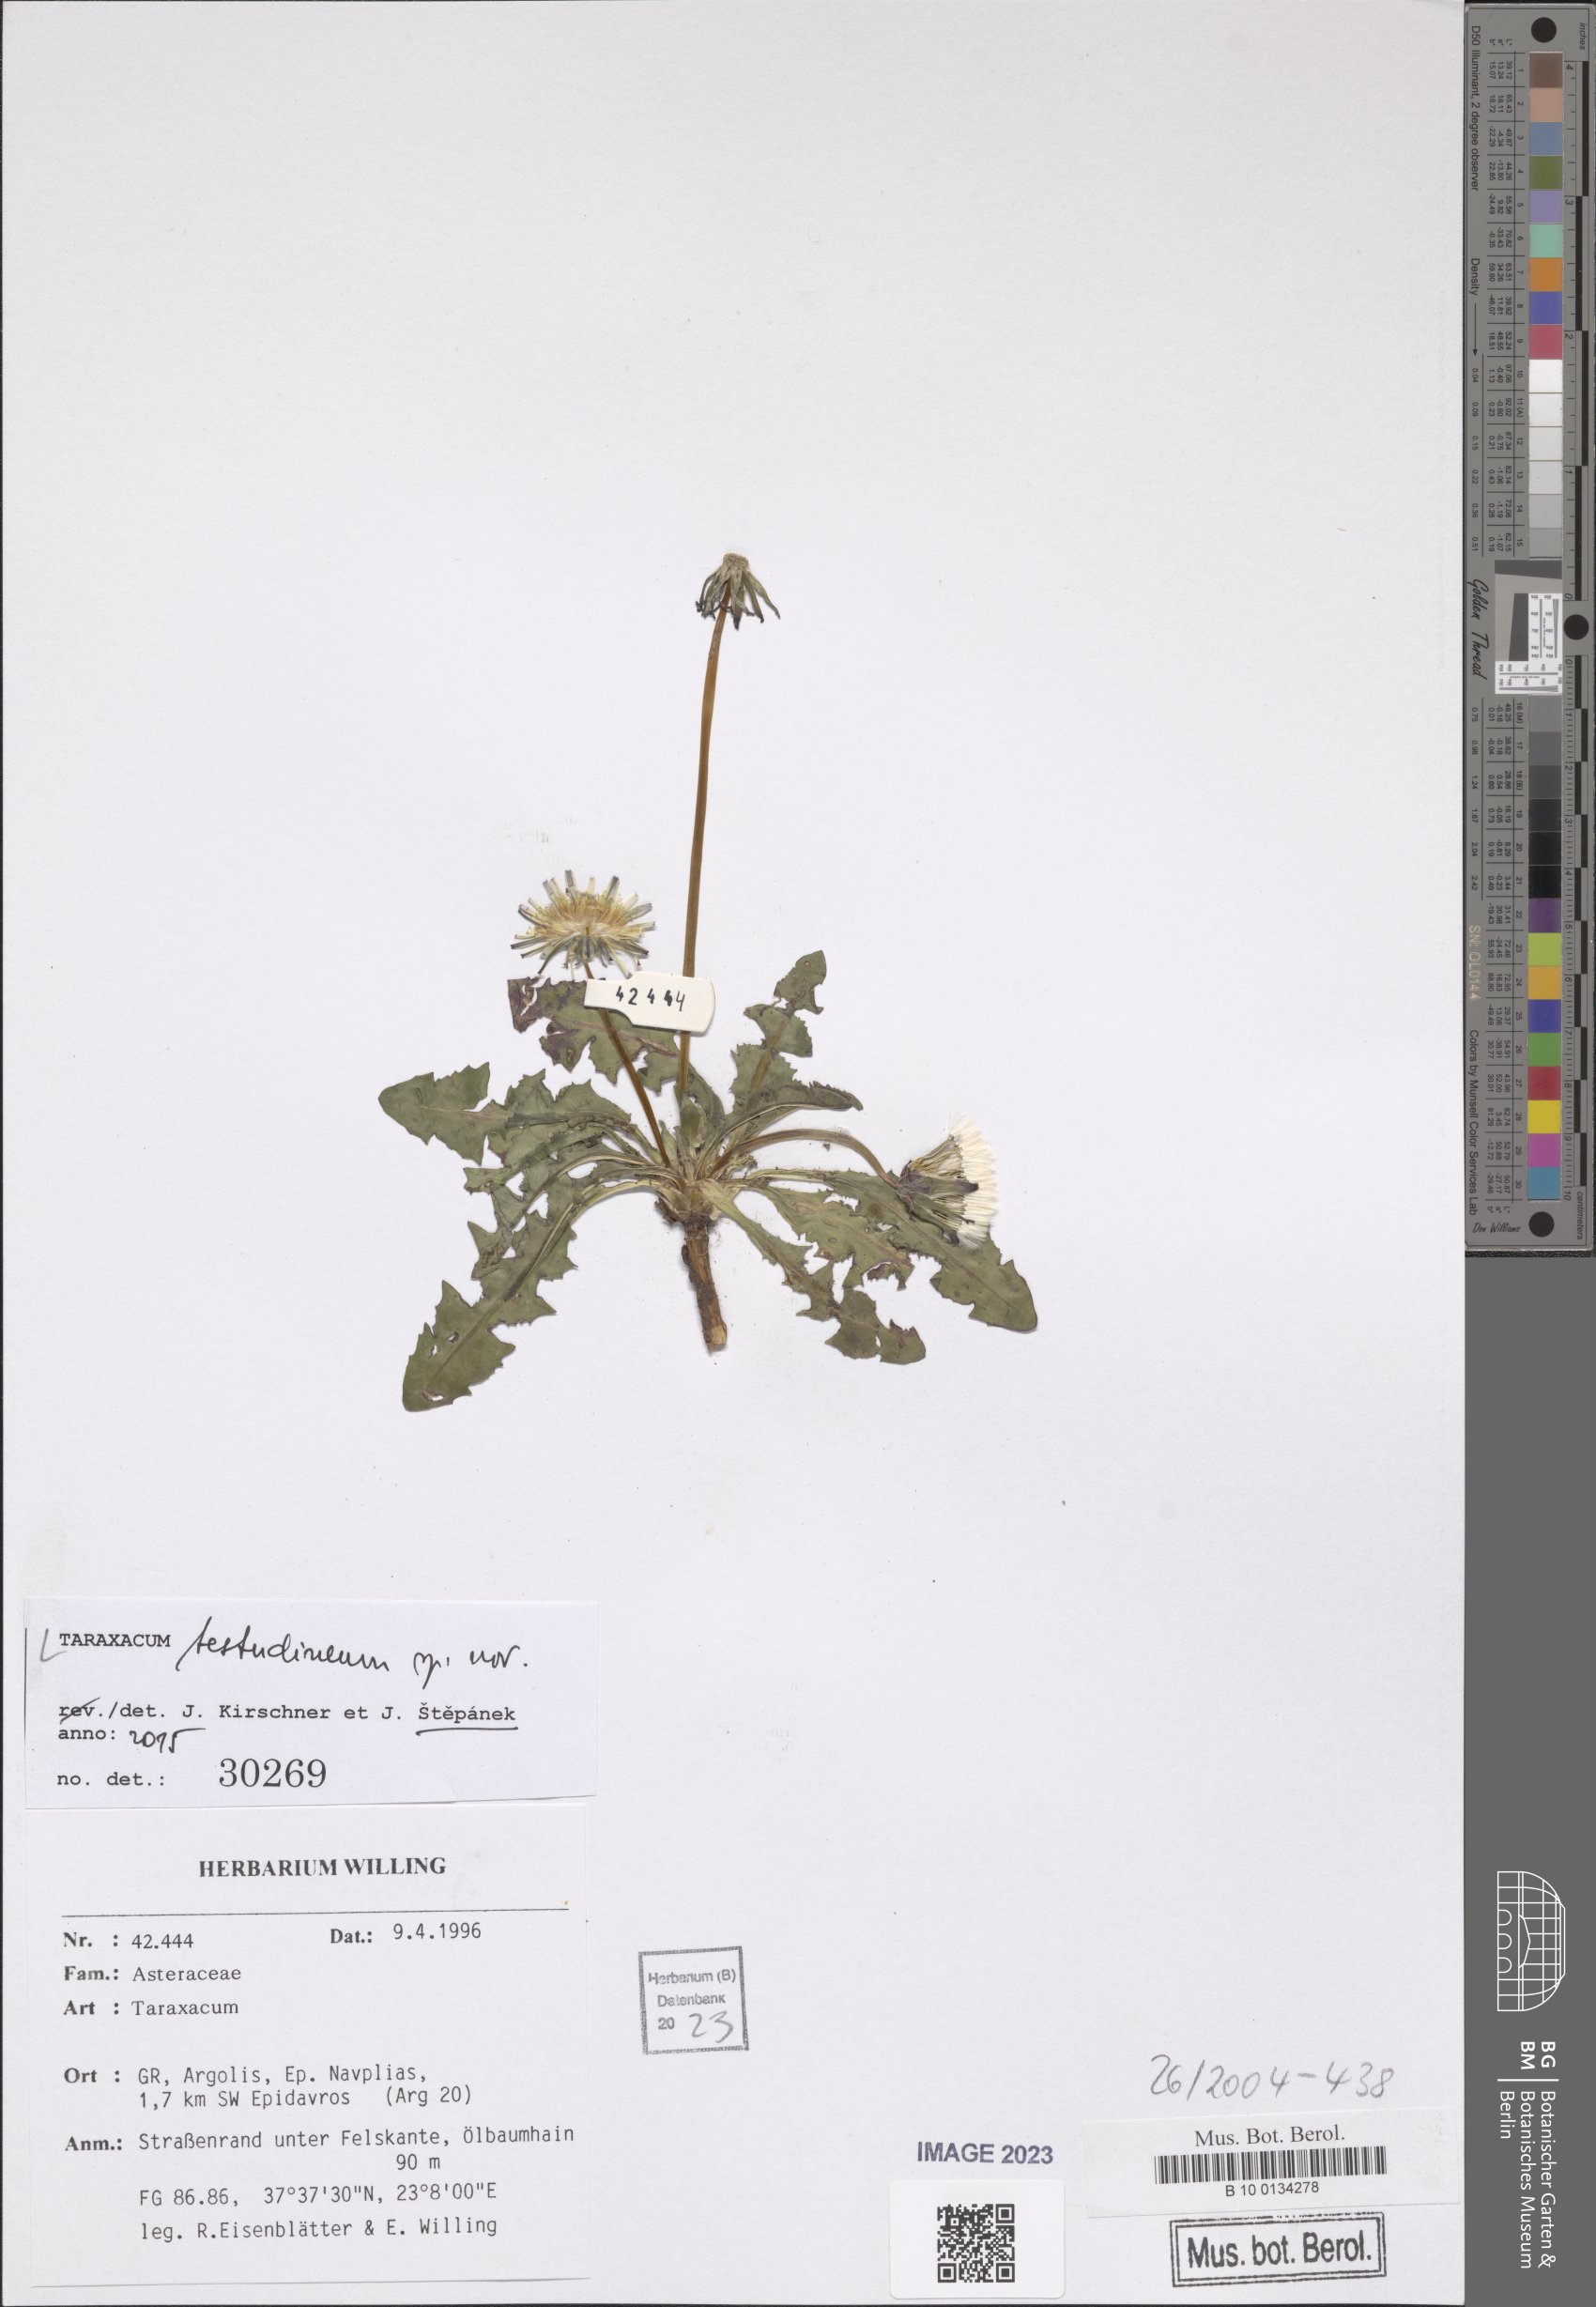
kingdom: Plantae
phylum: Tracheophyta
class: Magnoliopsida
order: Asterales
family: Asteraceae
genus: Taraxacum
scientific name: Taraxacum
